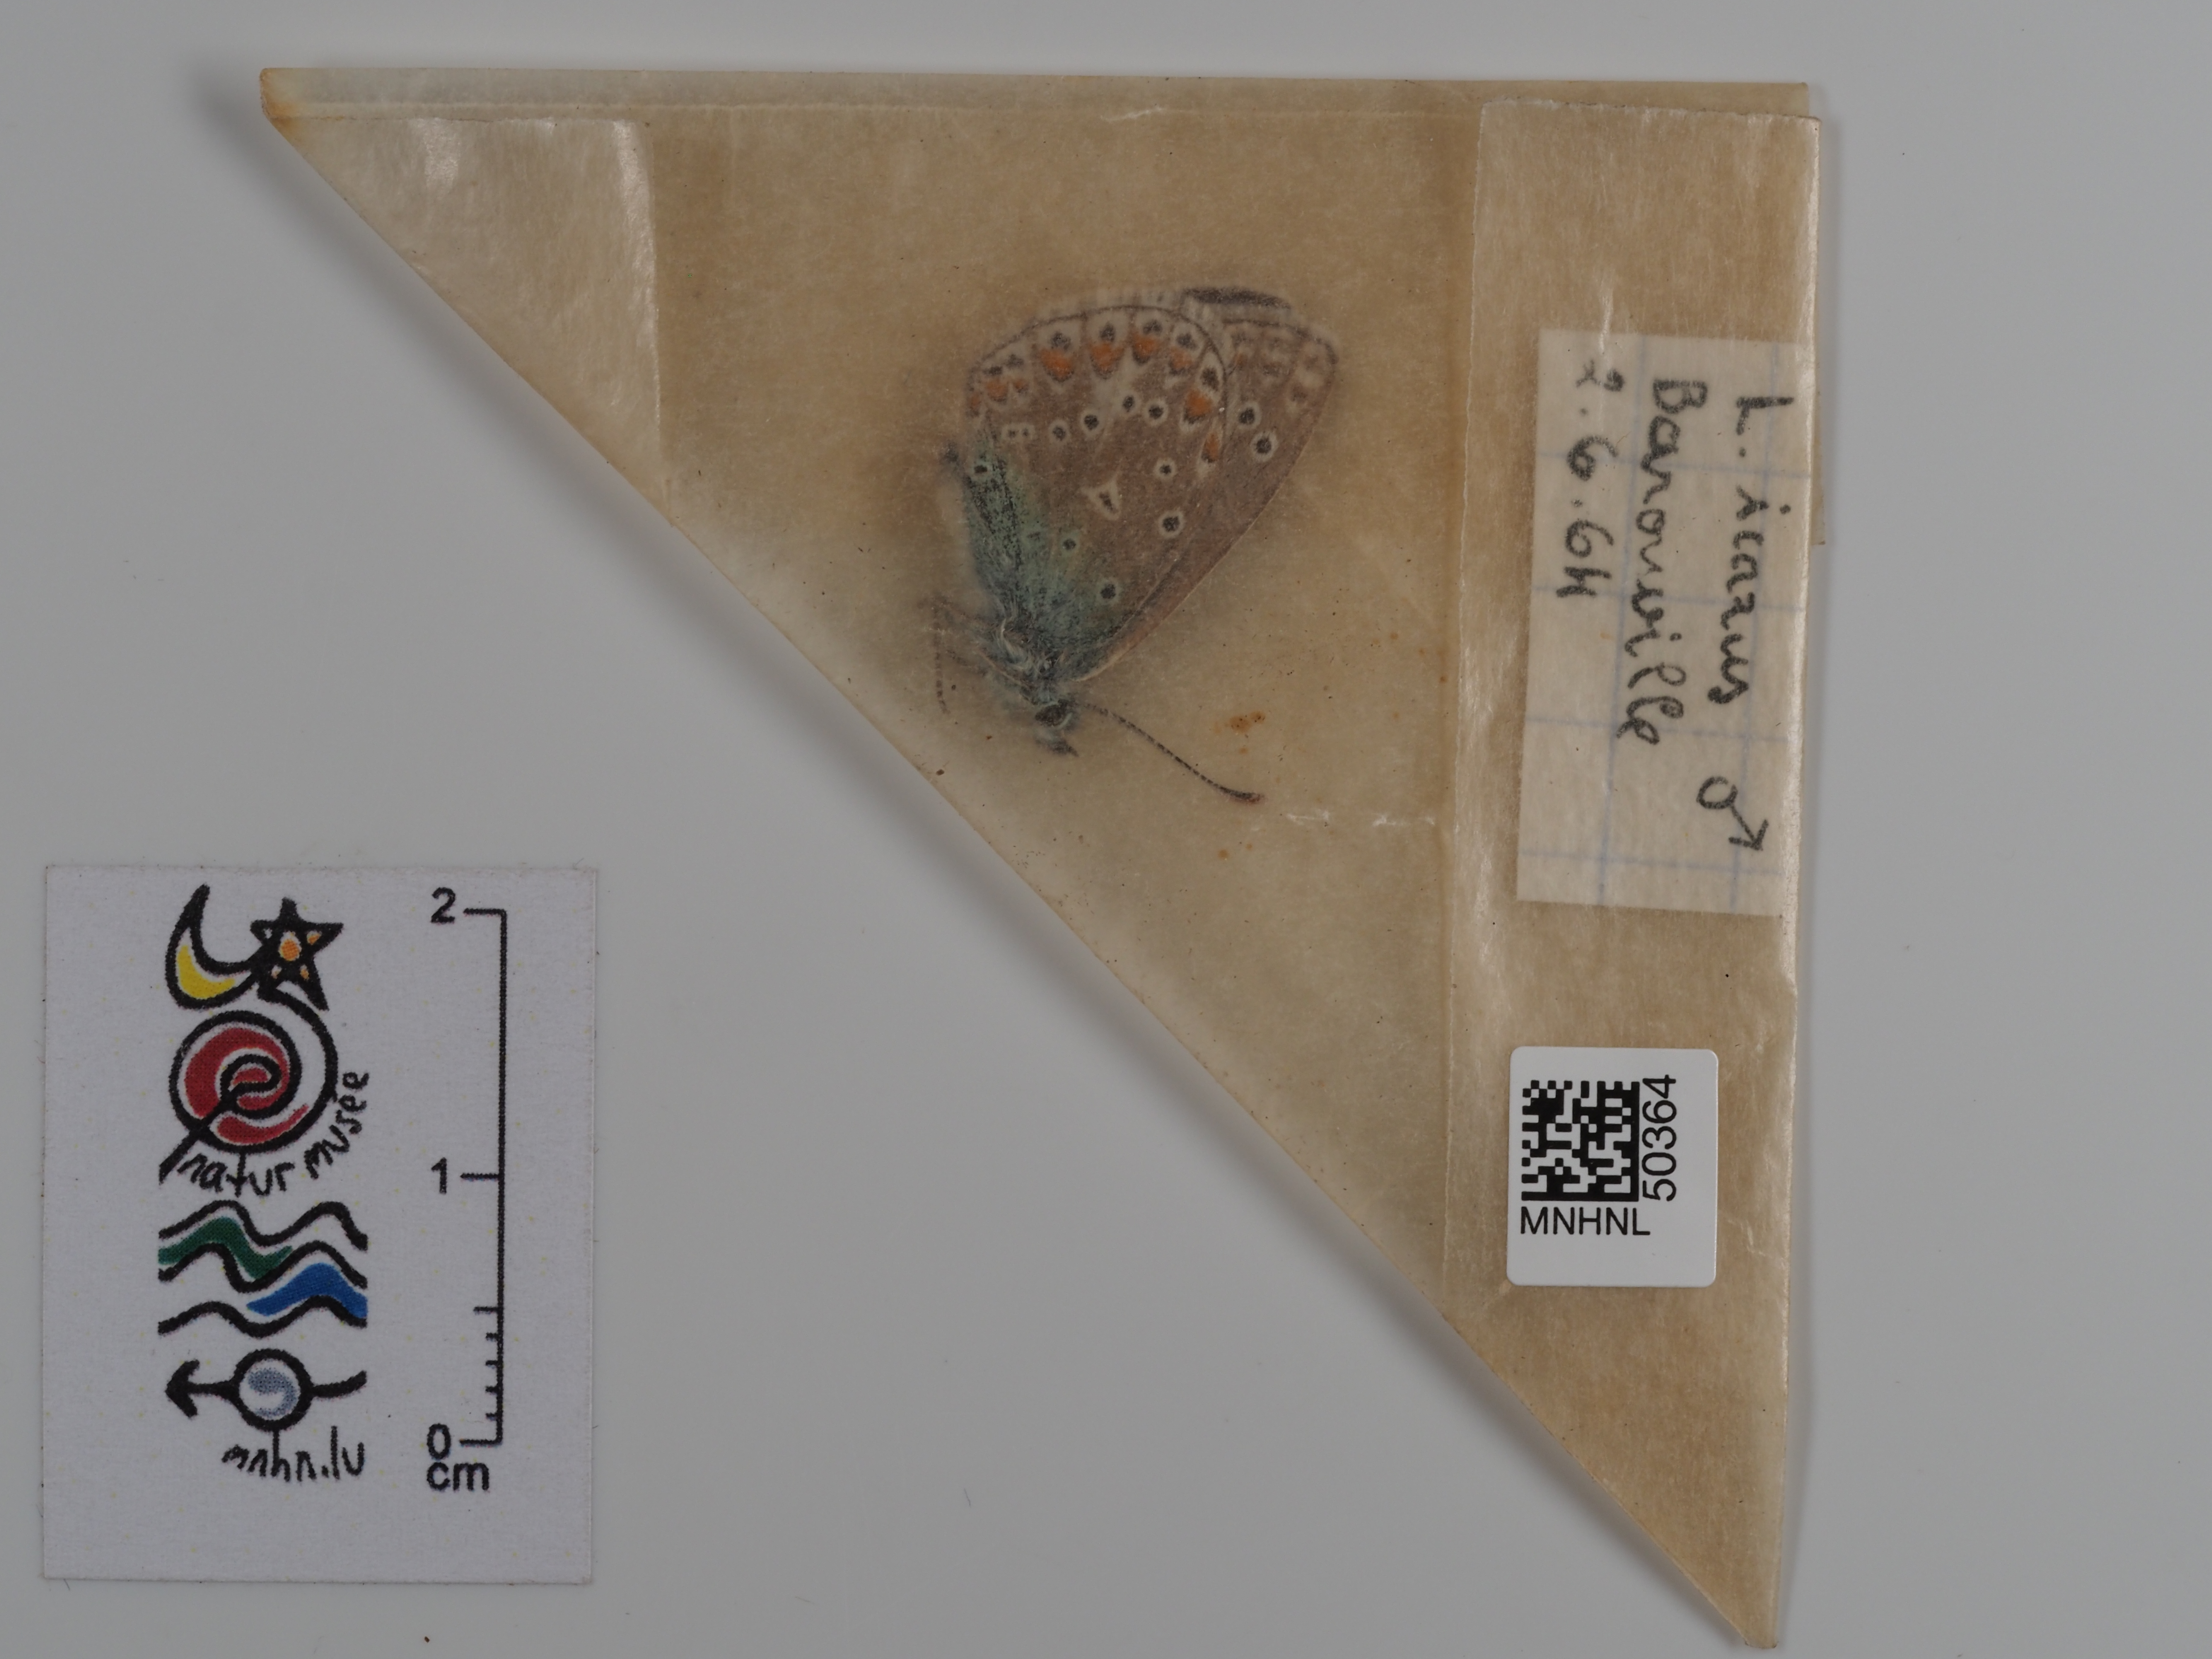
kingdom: Animalia
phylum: Arthropoda
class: Insecta
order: Lepidoptera
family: Lycaenidae
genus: Polyommatus
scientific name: Polyommatus icarus
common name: Common blue
